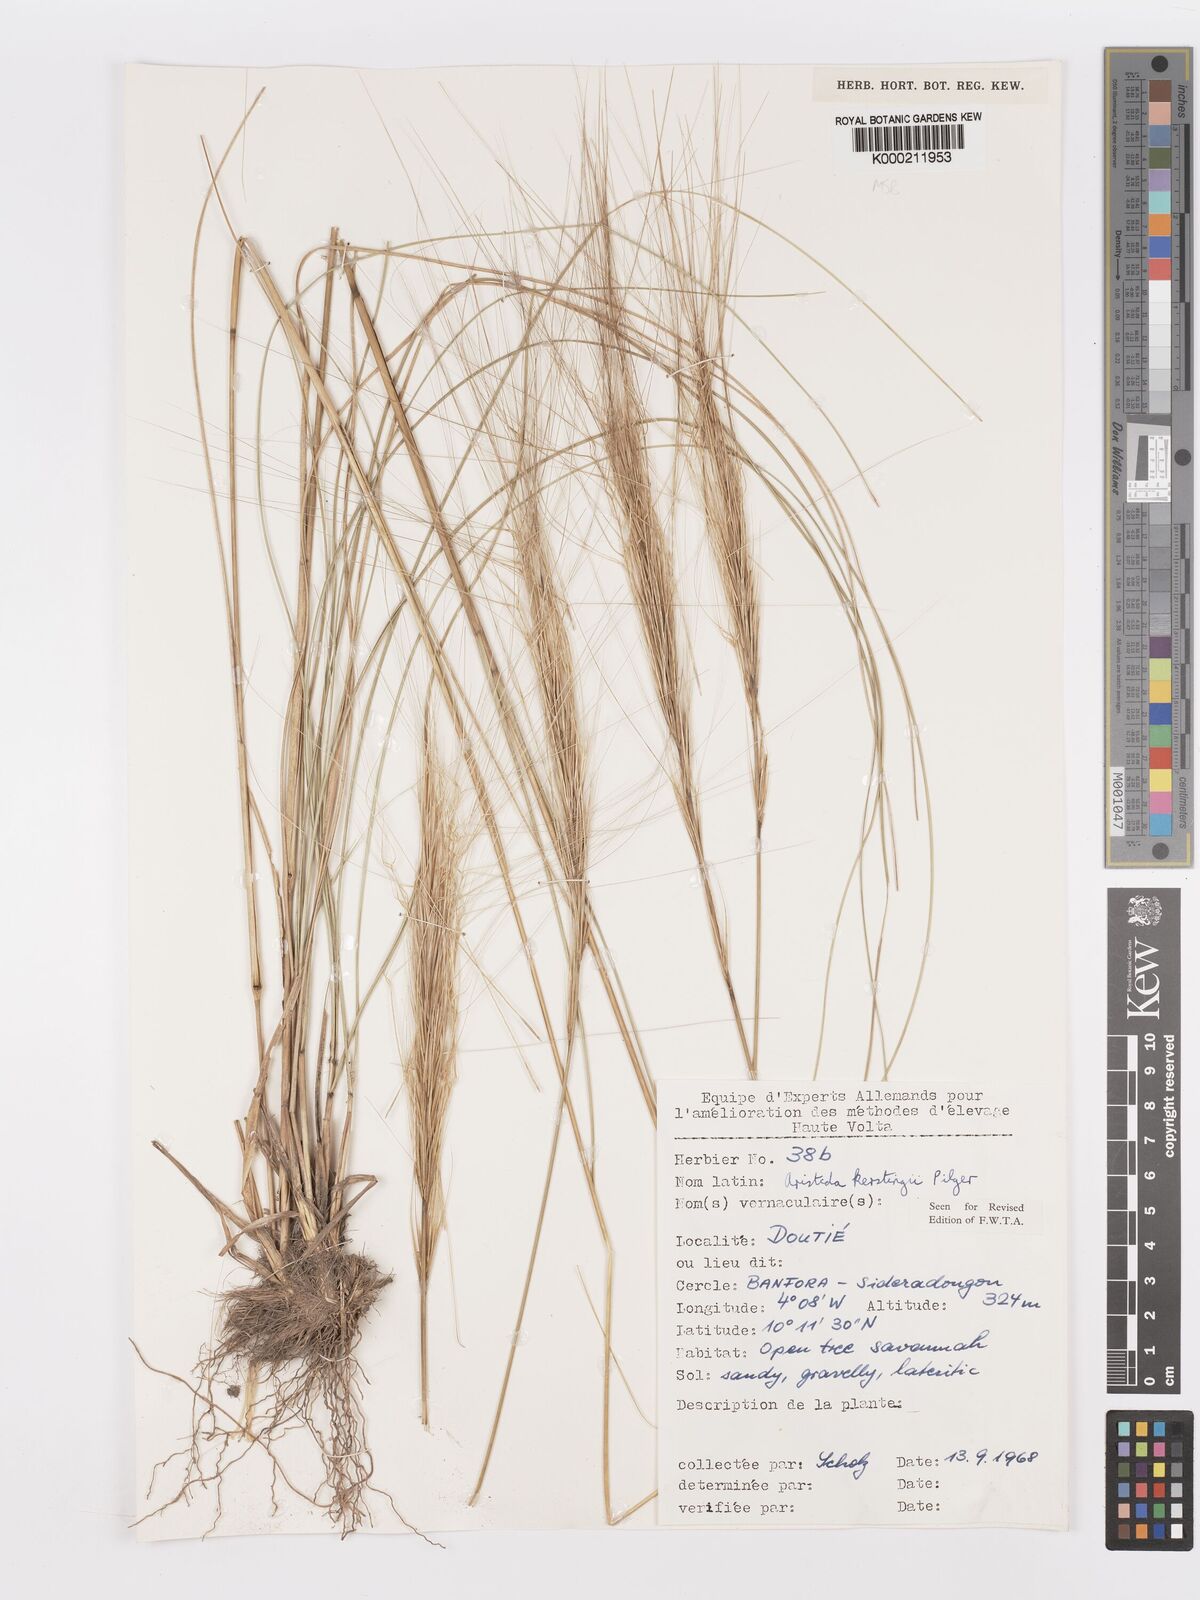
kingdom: Plantae
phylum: Tracheophyta
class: Liliopsida
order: Poales
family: Poaceae
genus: Aristida
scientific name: Aristida kerstingii
